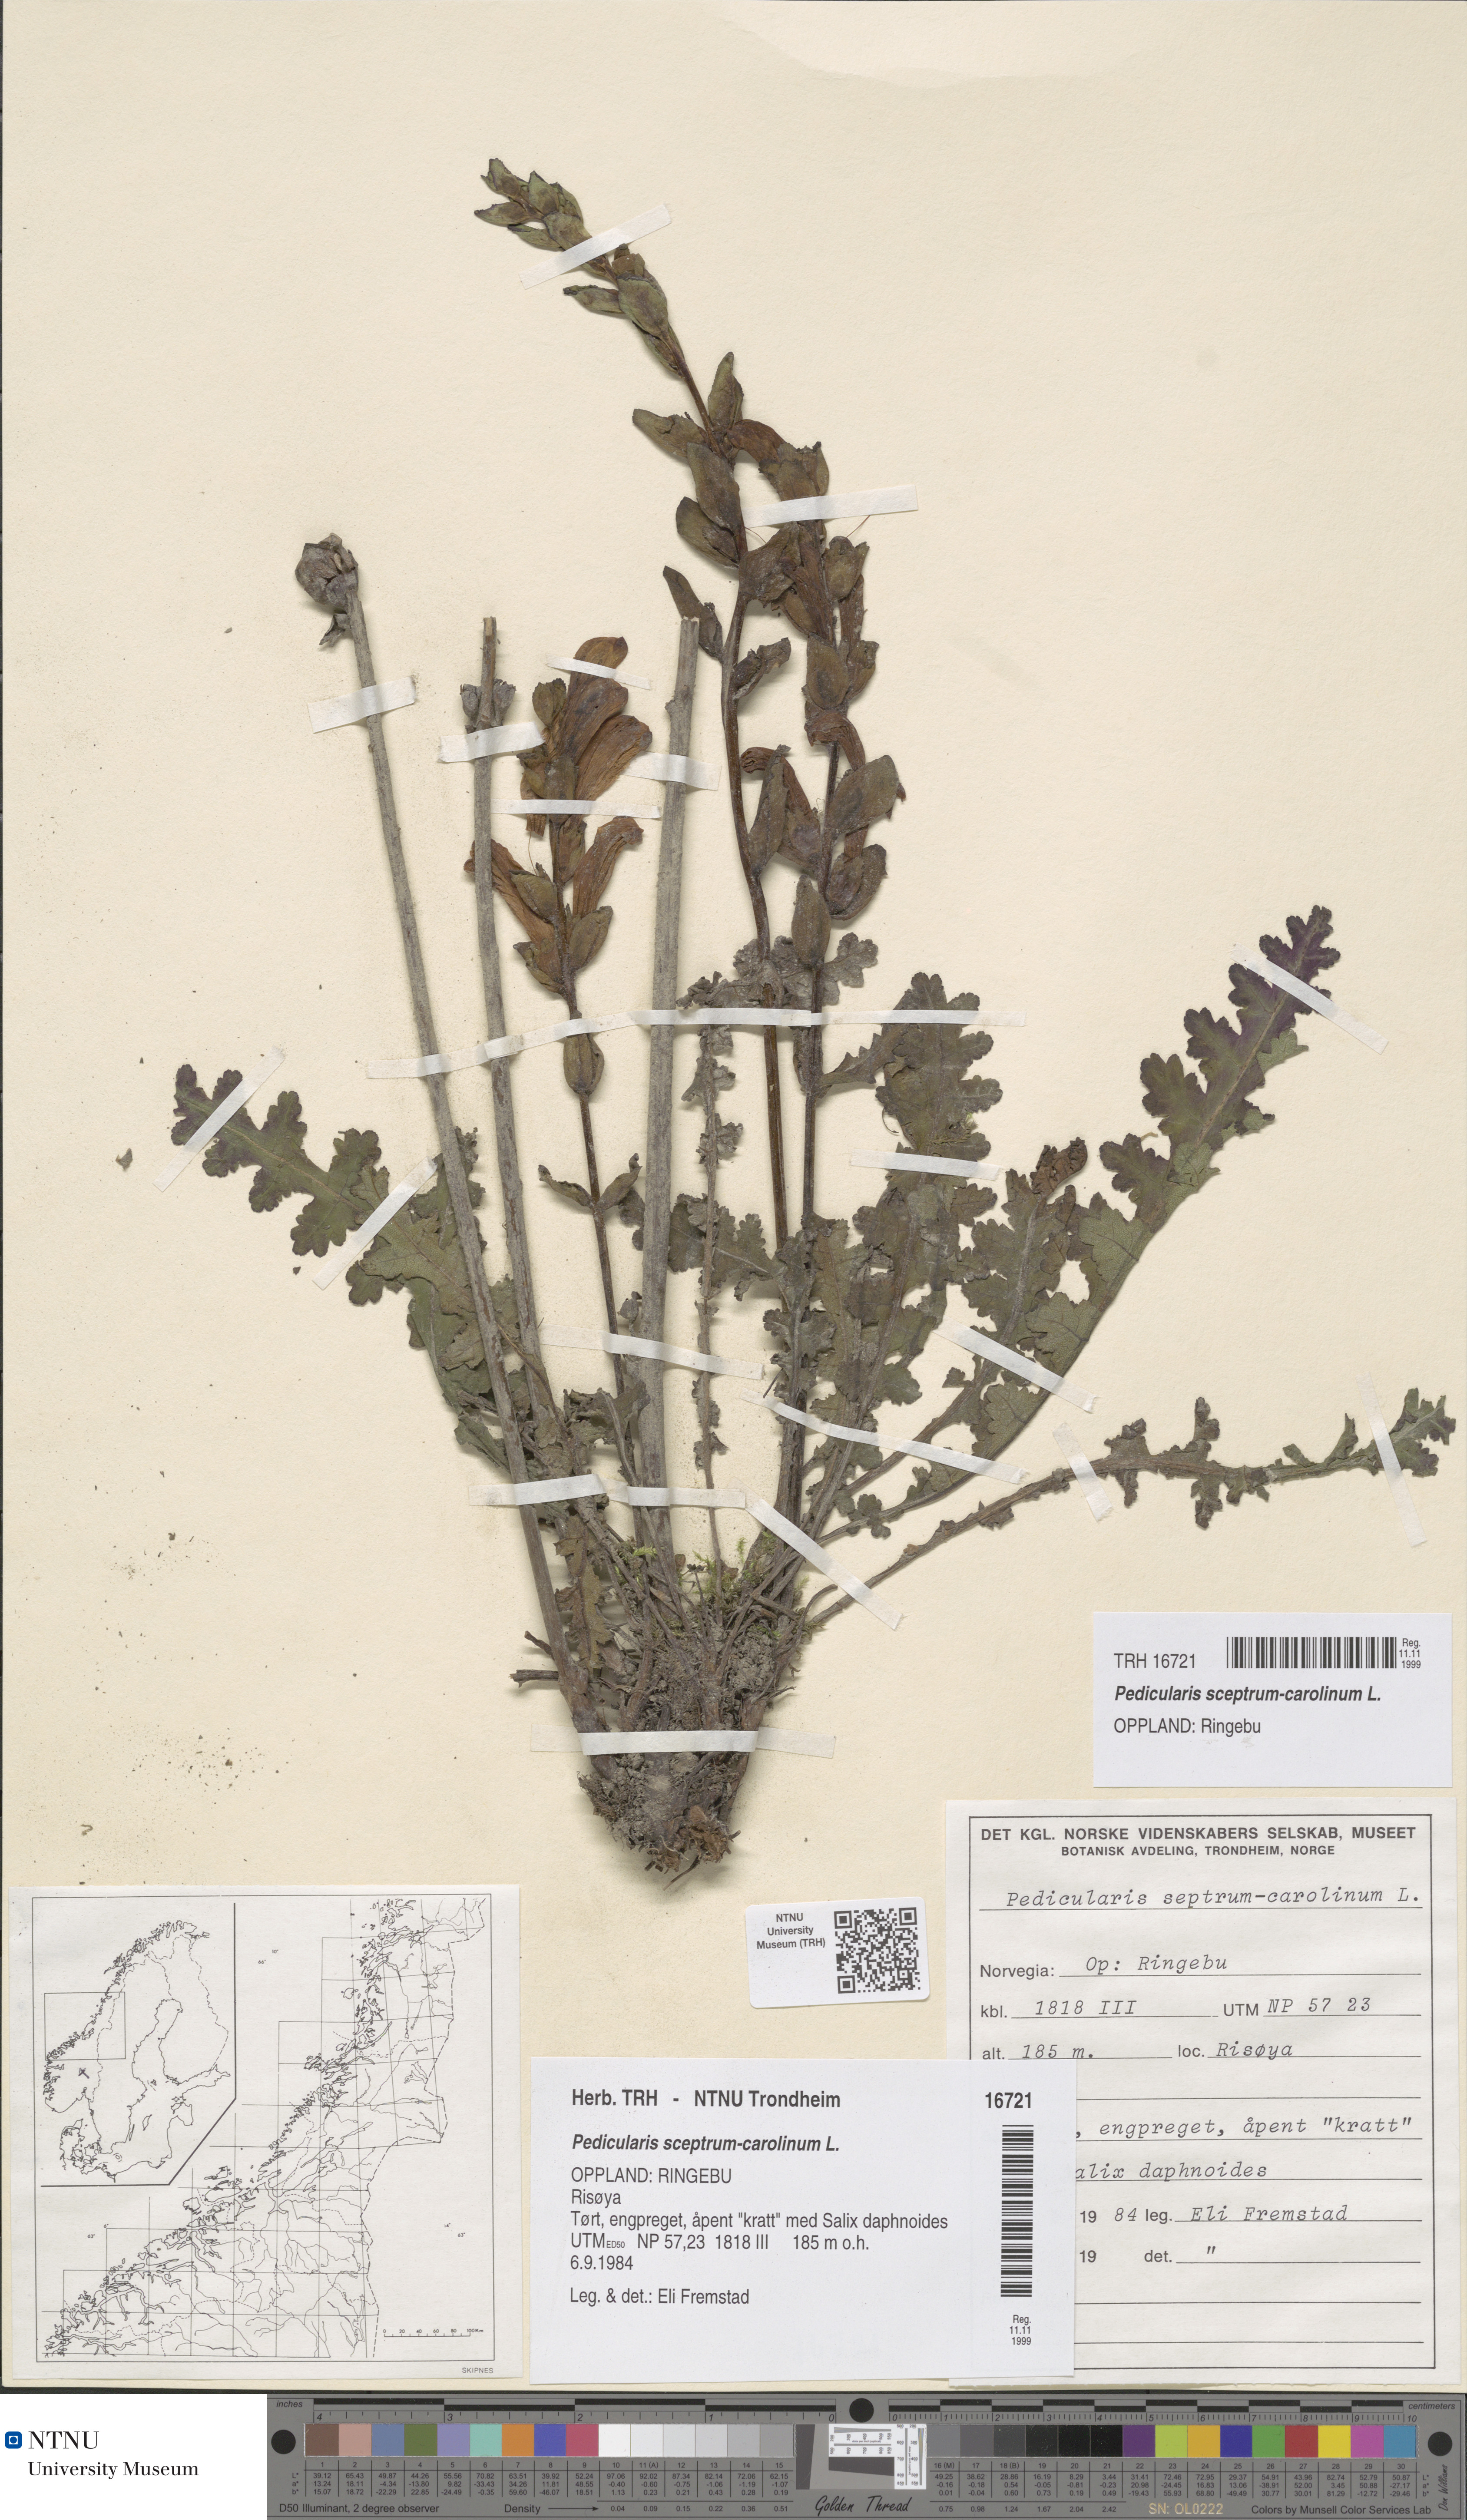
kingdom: Plantae
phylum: Tracheophyta
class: Magnoliopsida
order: Lamiales
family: Orobanchaceae
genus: Pedicularis
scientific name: Pedicularis sceptrum-carolinum
